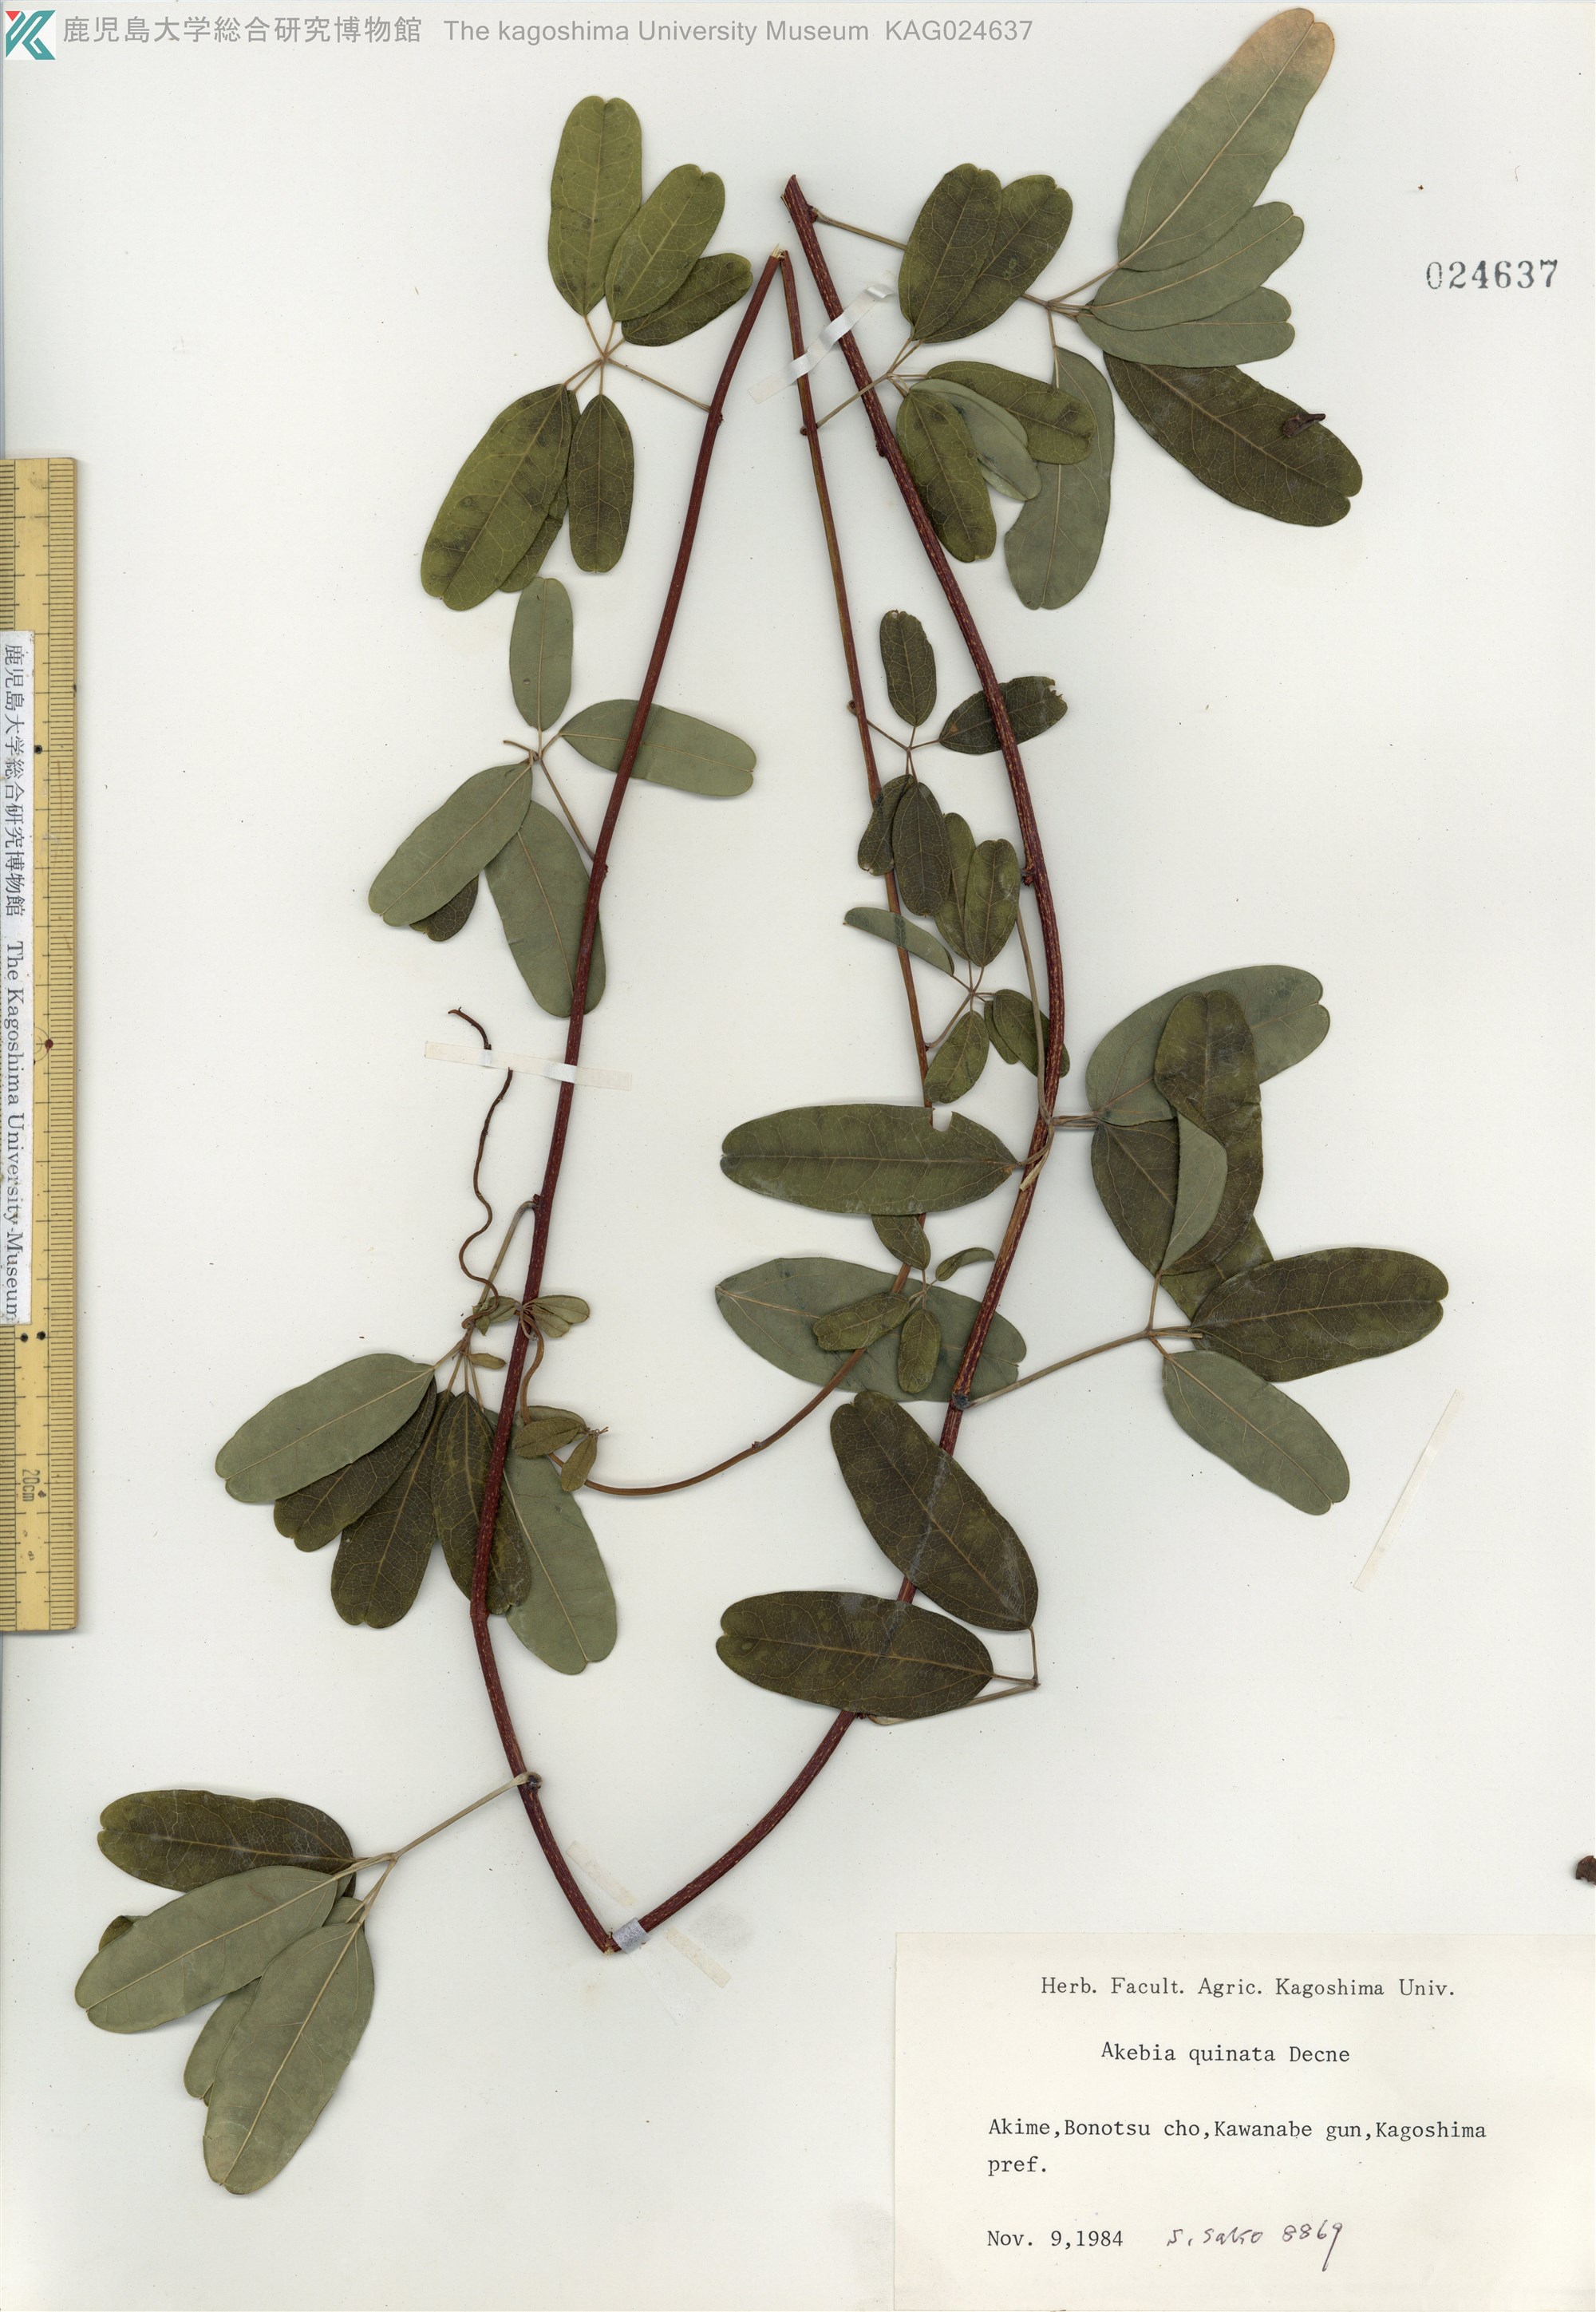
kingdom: Plantae
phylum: Tracheophyta
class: Magnoliopsida
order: Ranunculales
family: Lardizabalaceae
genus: Akebia
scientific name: Akebia quinata
